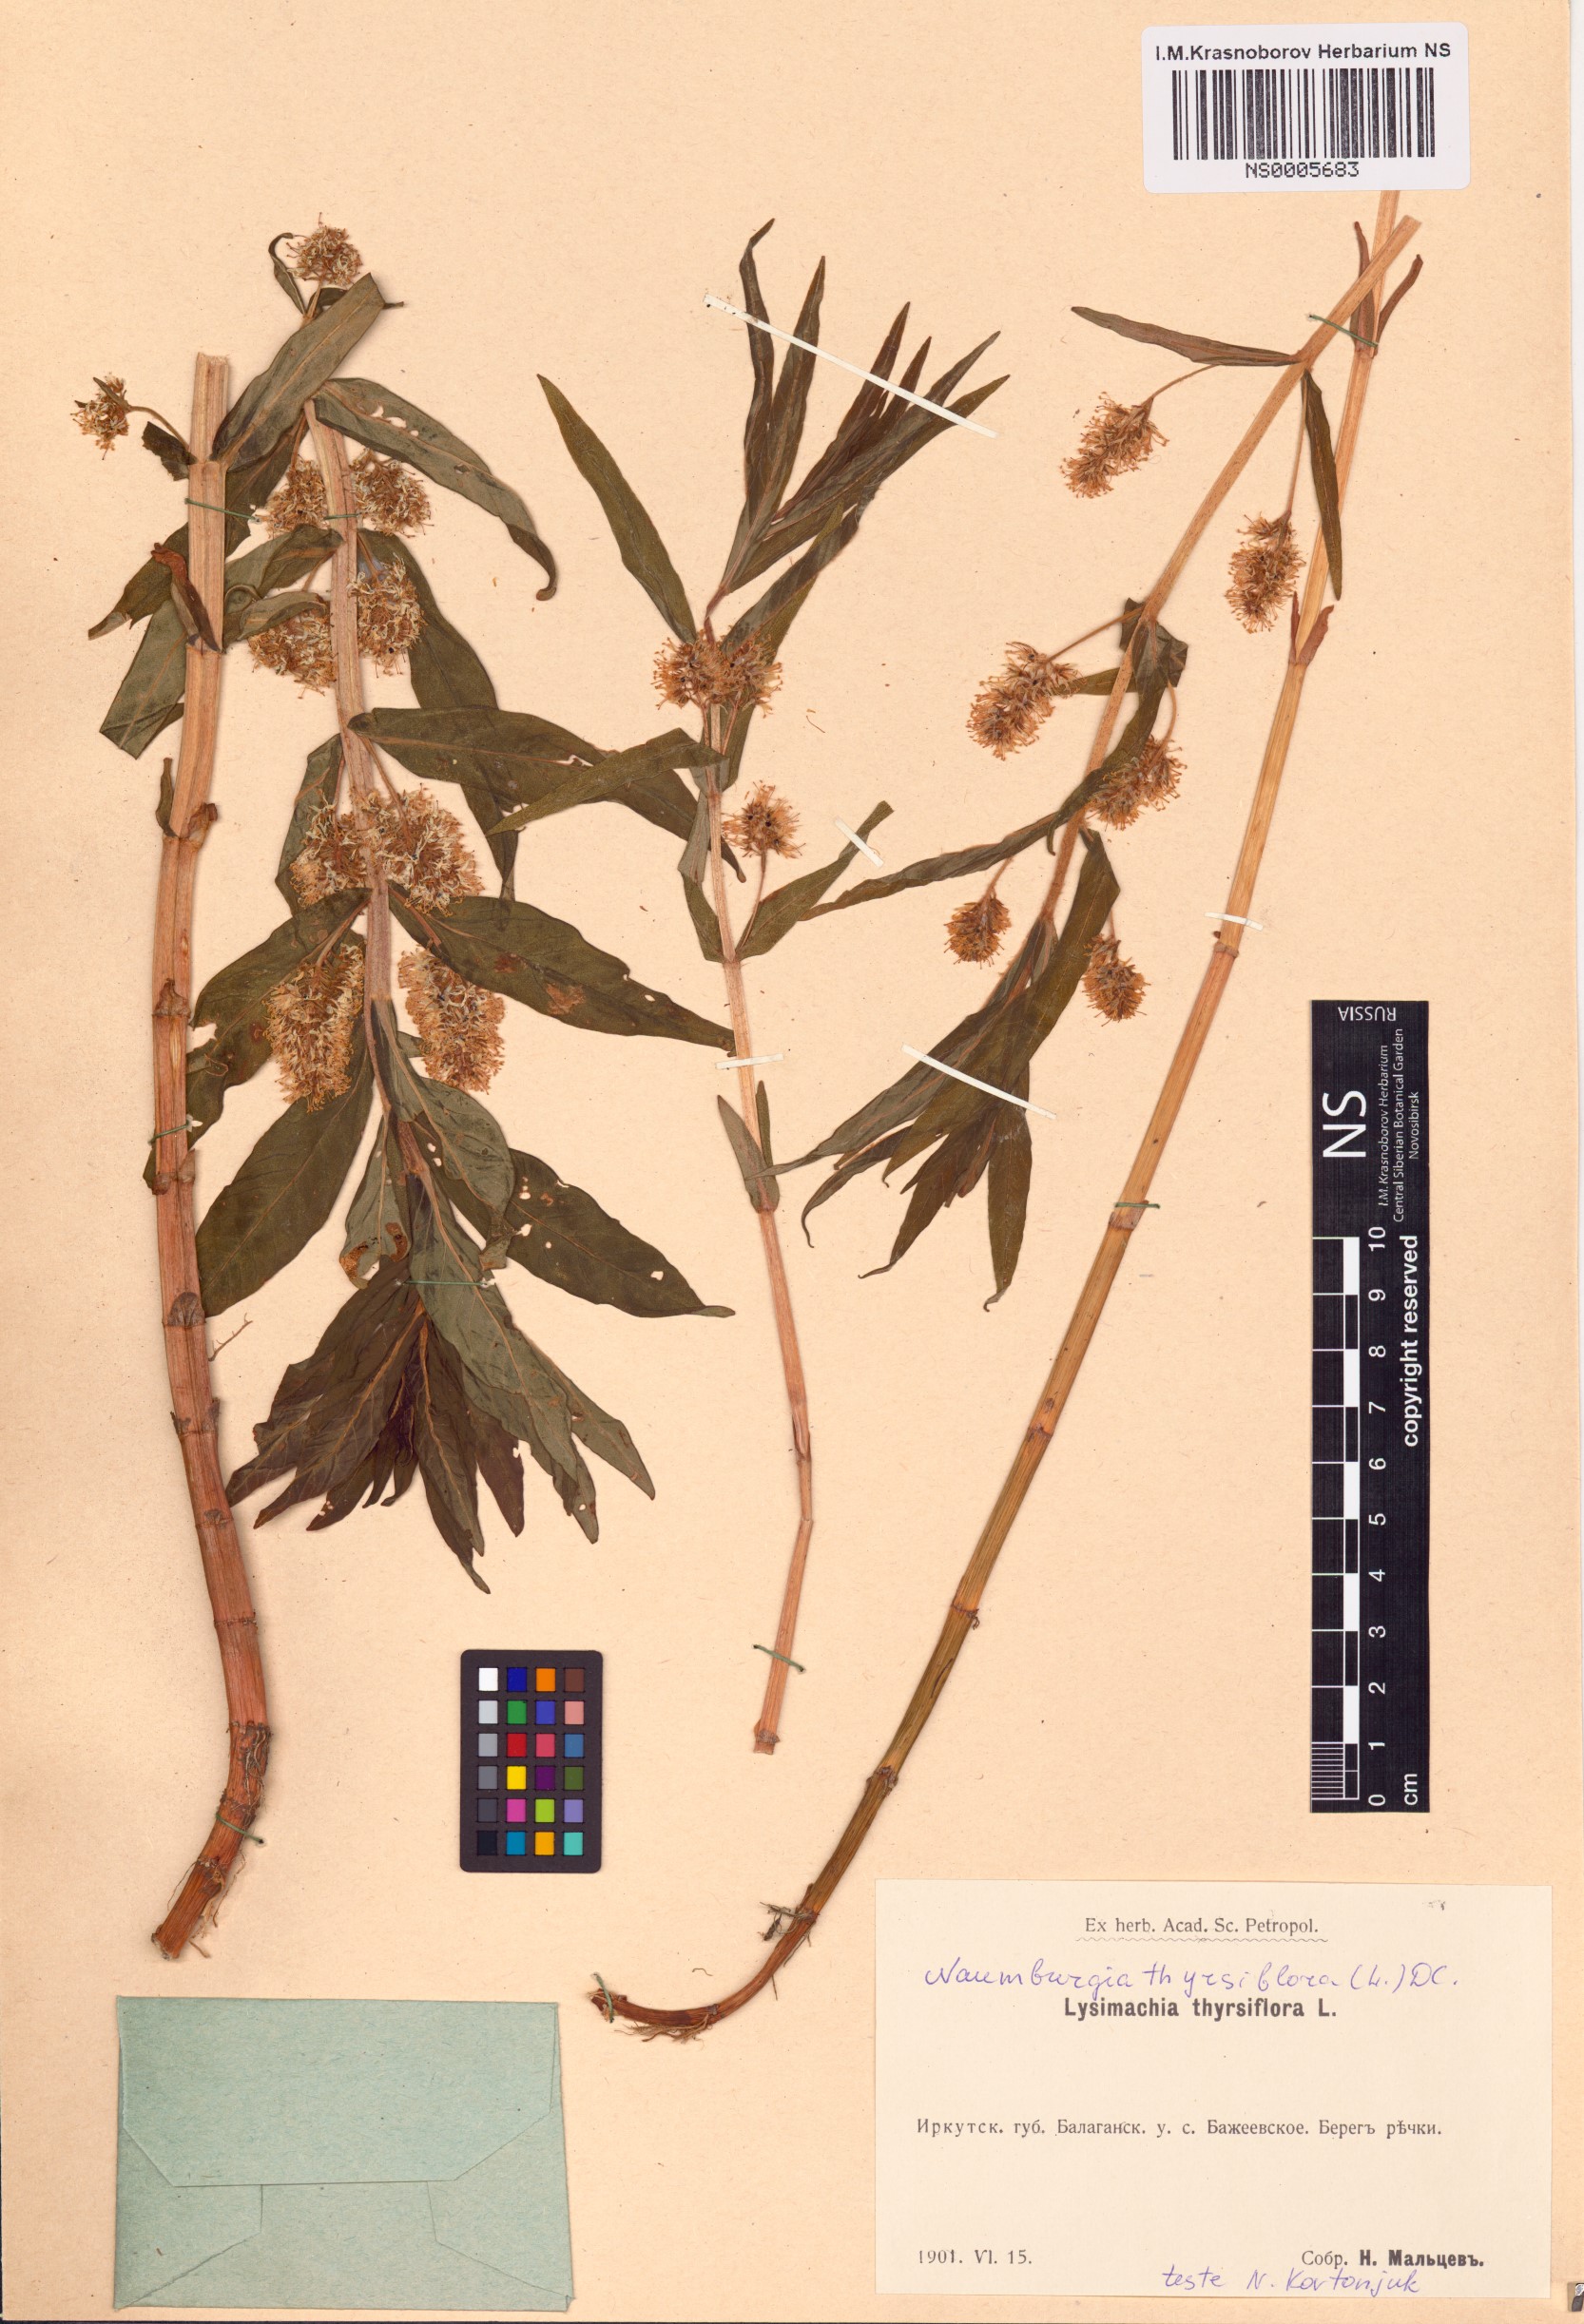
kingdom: Plantae
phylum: Tracheophyta
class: Magnoliopsida
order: Ericales
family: Primulaceae
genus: Lysimachia
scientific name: Lysimachia thyrsiflora
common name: Tufted loosestrife
